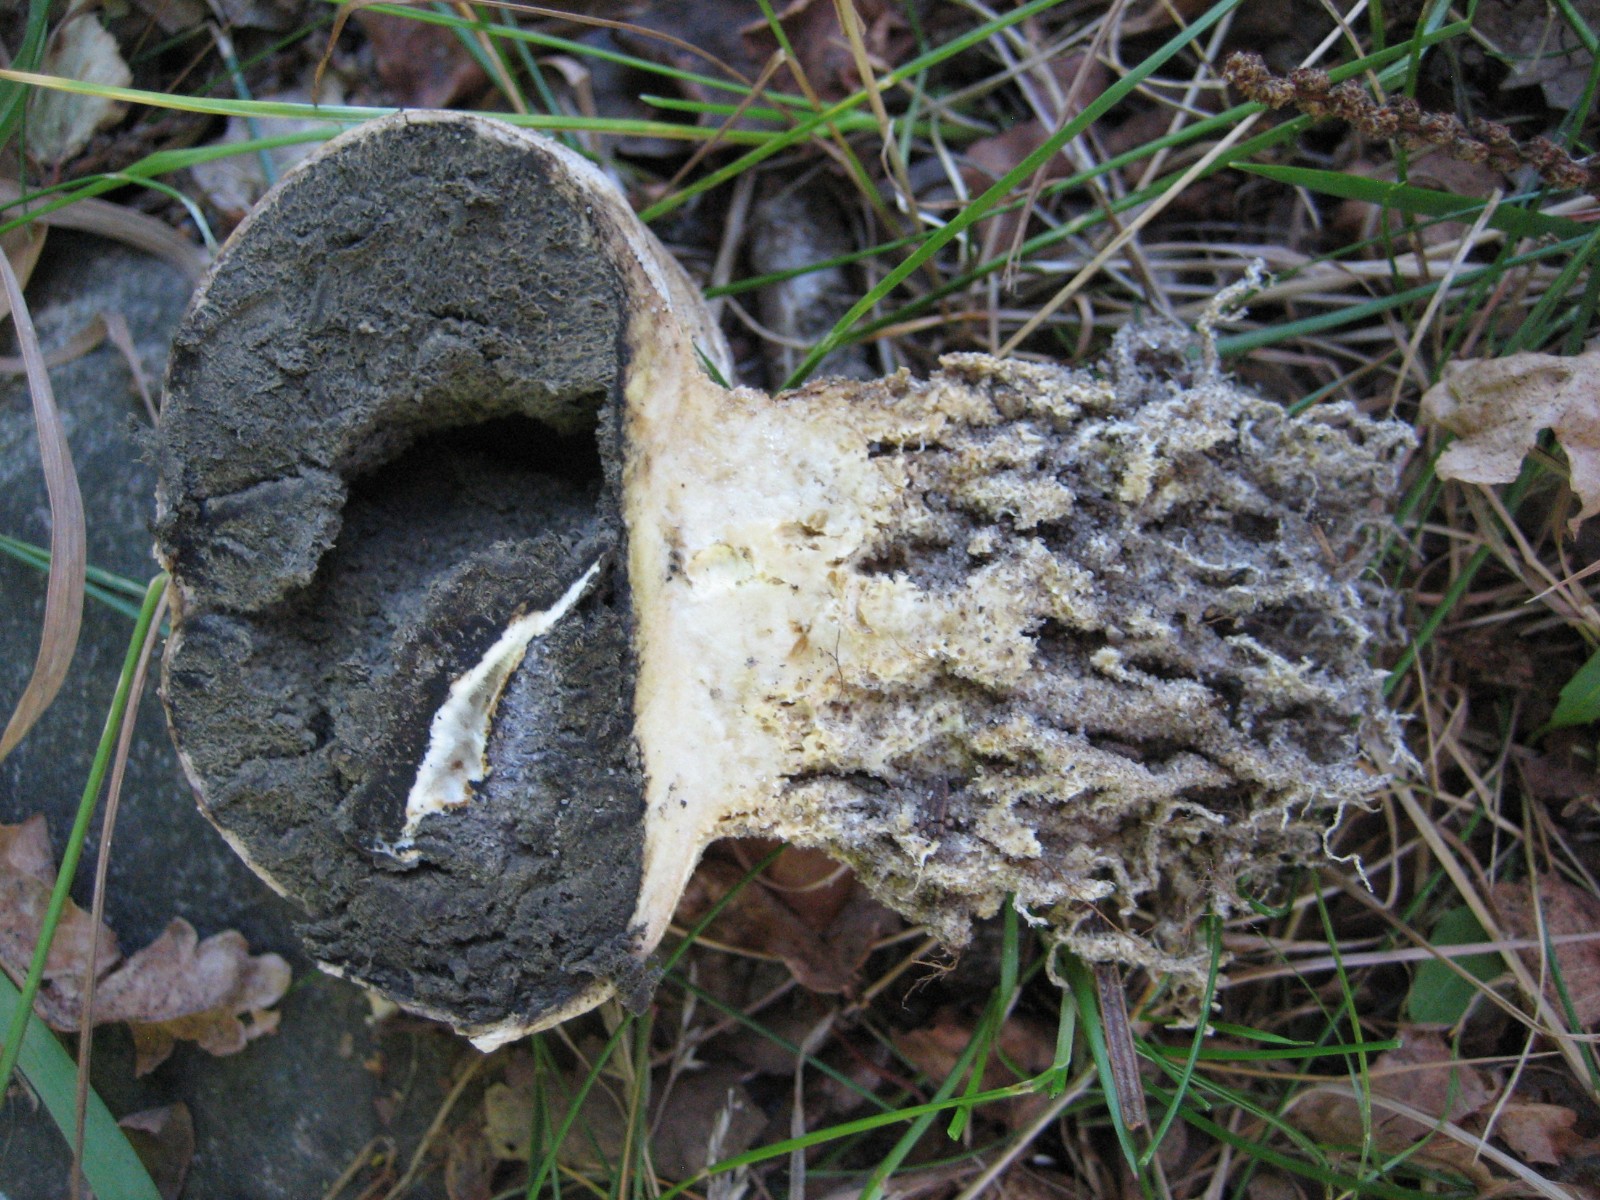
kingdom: Fungi
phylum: Basidiomycota
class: Agaricomycetes
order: Boletales
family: Sclerodermataceae
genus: Scleroderma
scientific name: Scleroderma
